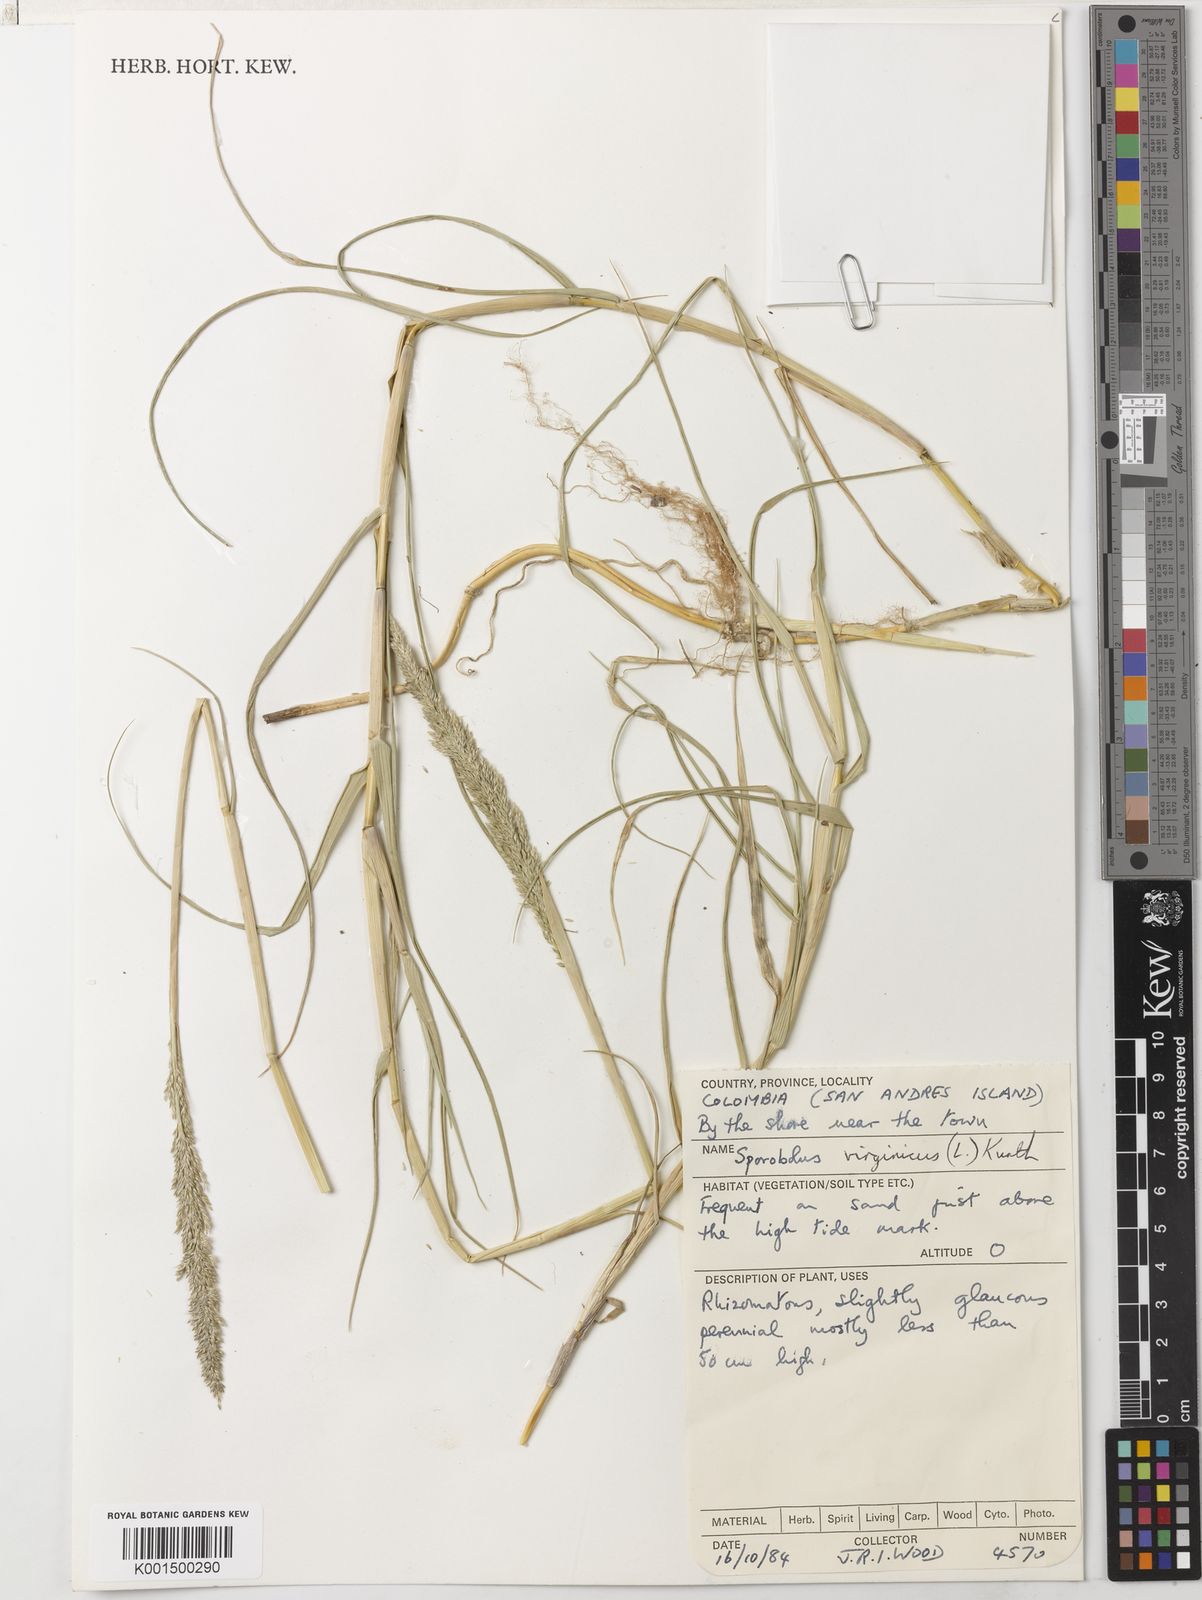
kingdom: Plantae
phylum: Tracheophyta
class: Liliopsida
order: Poales
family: Poaceae
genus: Sporobolus
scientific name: Sporobolus virginicus
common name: Beach dropseed
